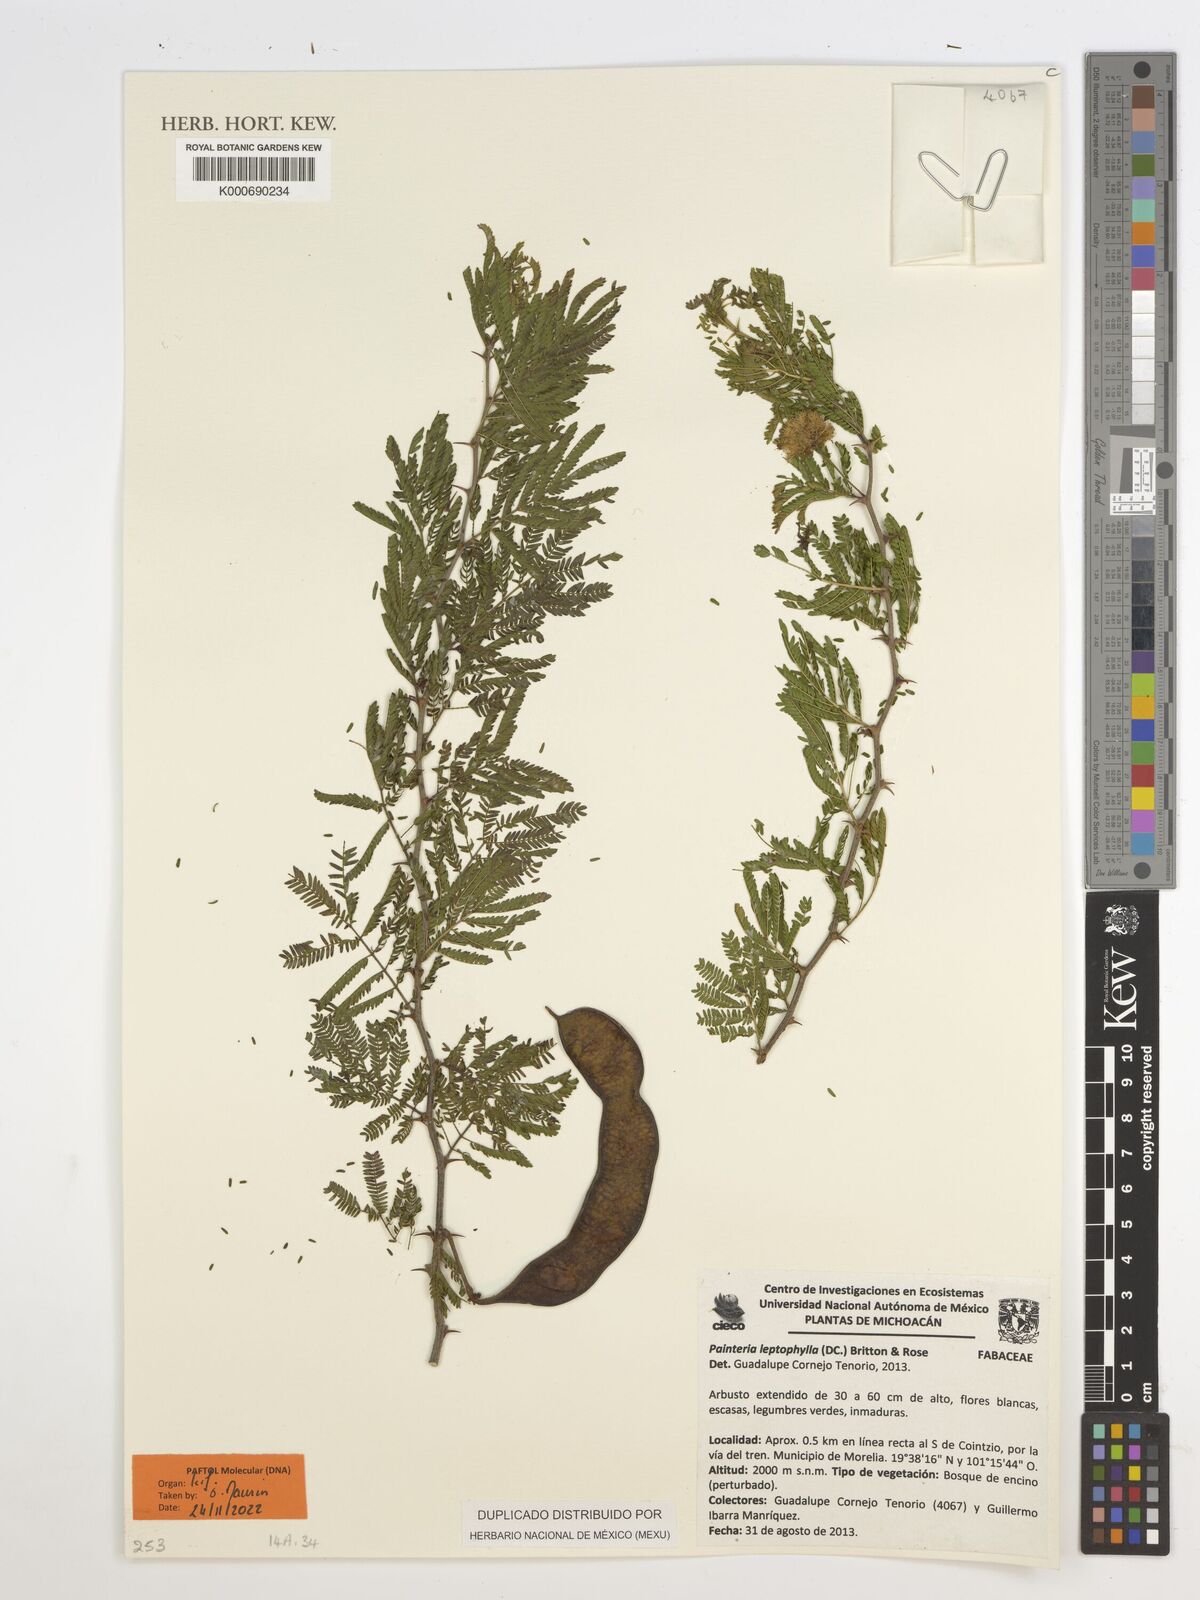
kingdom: Plantae
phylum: Tracheophyta
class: Magnoliopsida
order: Fabales
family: Fabaceae
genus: Painteria
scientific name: Painteria leptophylla
